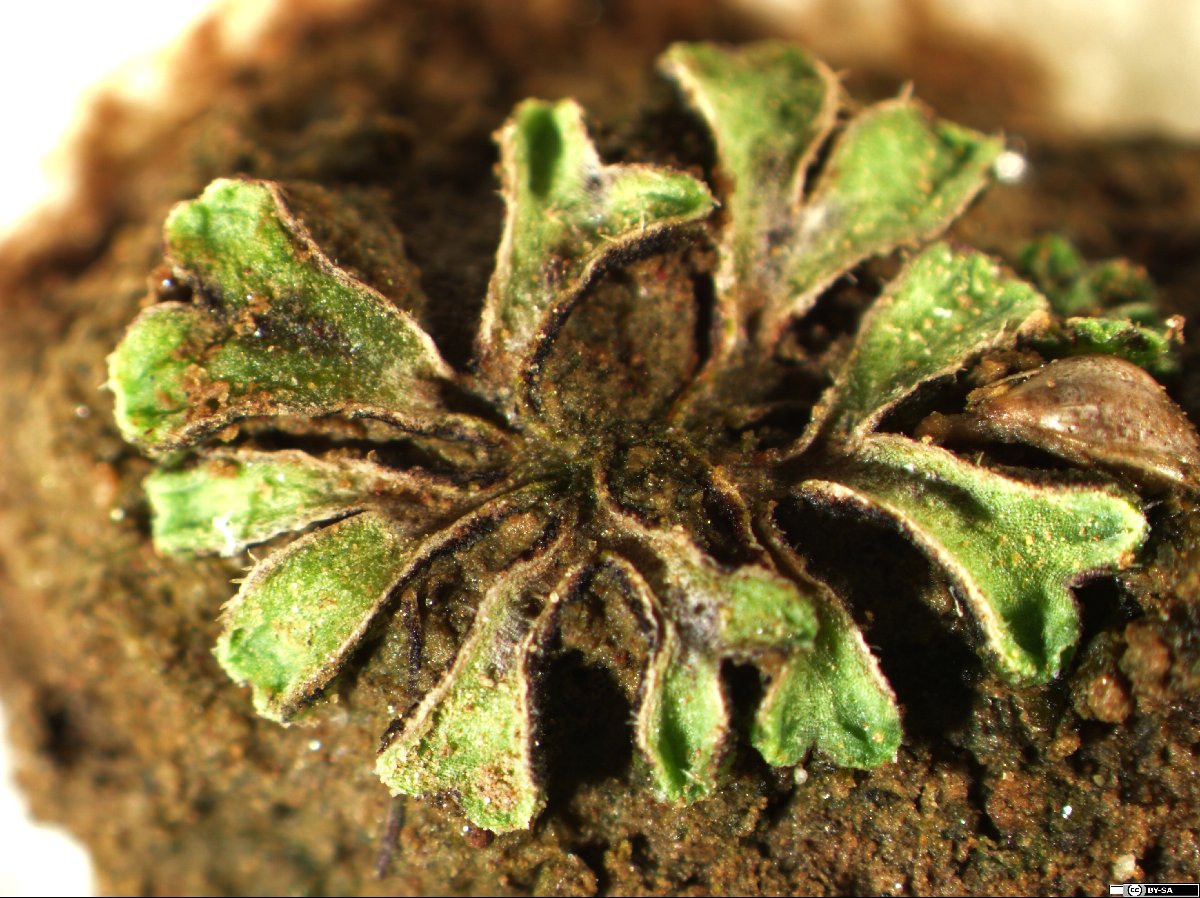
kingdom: Plantae
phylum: Marchantiophyta
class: Marchantiopsida
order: Marchantiales
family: Ricciaceae
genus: Riccia
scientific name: Riccia
